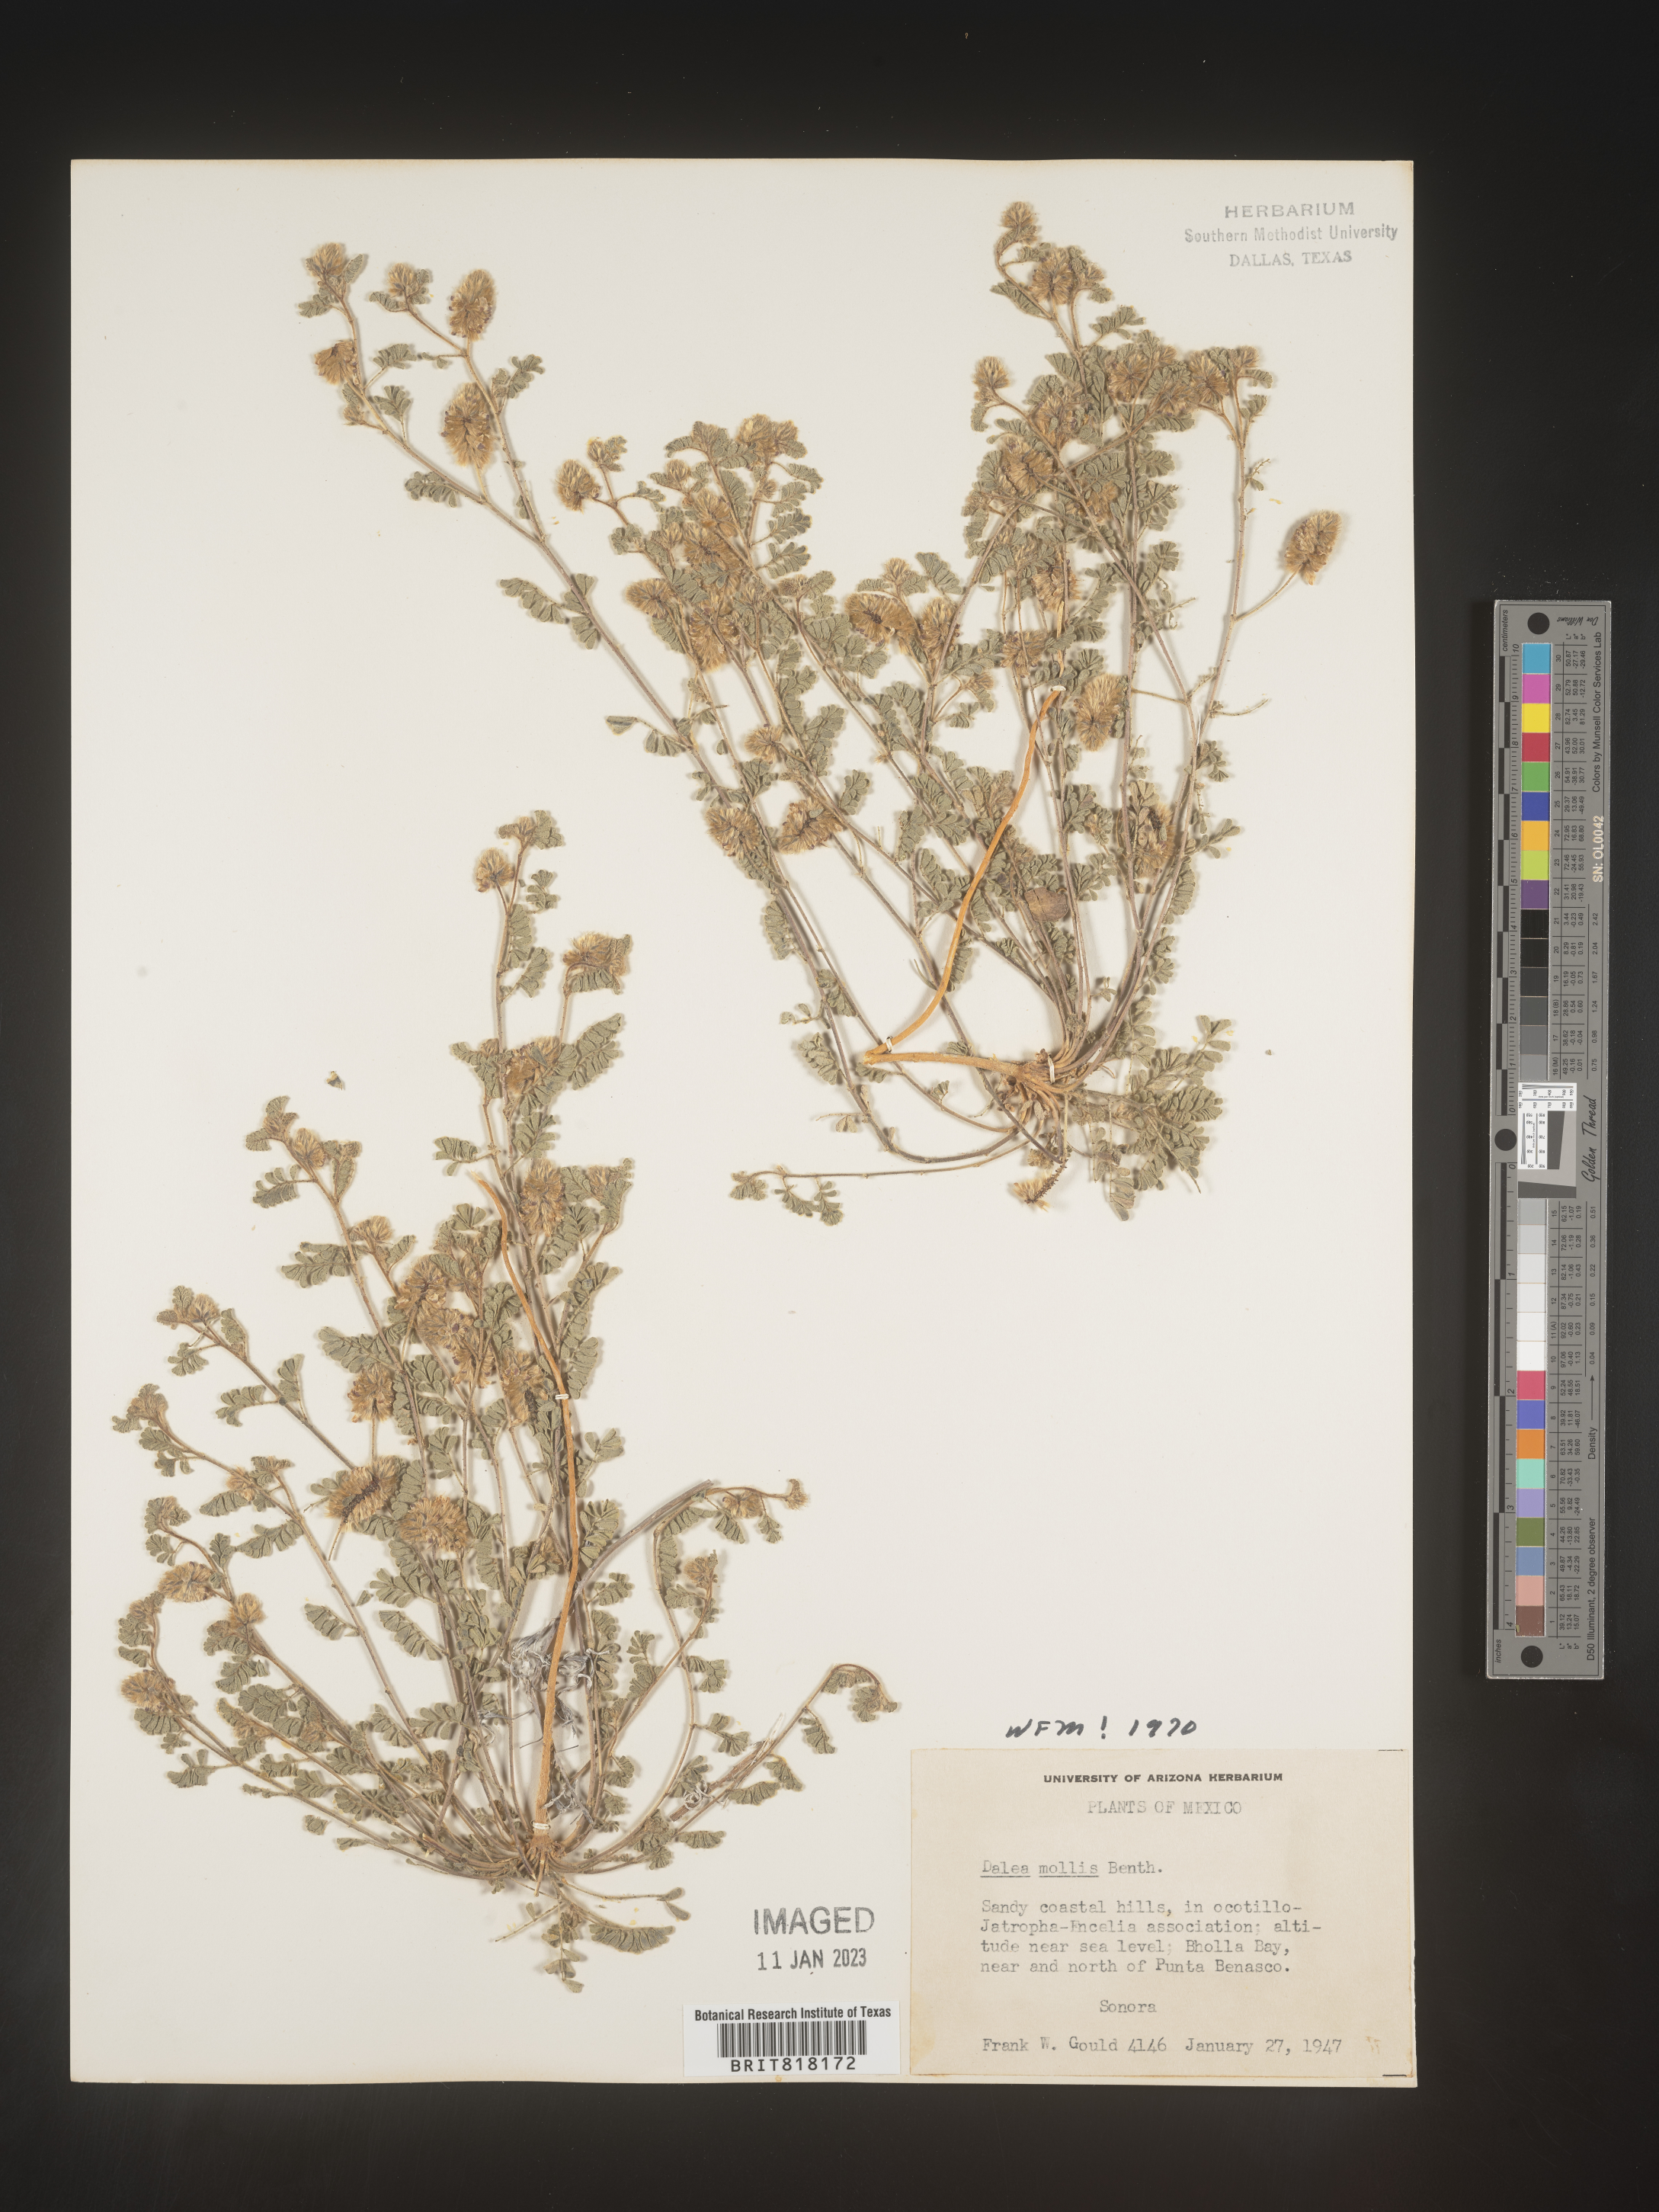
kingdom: Plantae
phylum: Tracheophyta
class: Magnoliopsida
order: Fabales
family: Fabaceae
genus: Dalea
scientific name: Dalea
